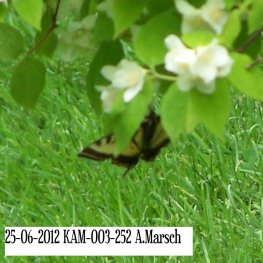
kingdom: Animalia
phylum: Arthropoda
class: Insecta
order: Lepidoptera
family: Papilionidae
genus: Pterourus
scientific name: Pterourus canadensis
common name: Canadian Tiger Swallowtail
